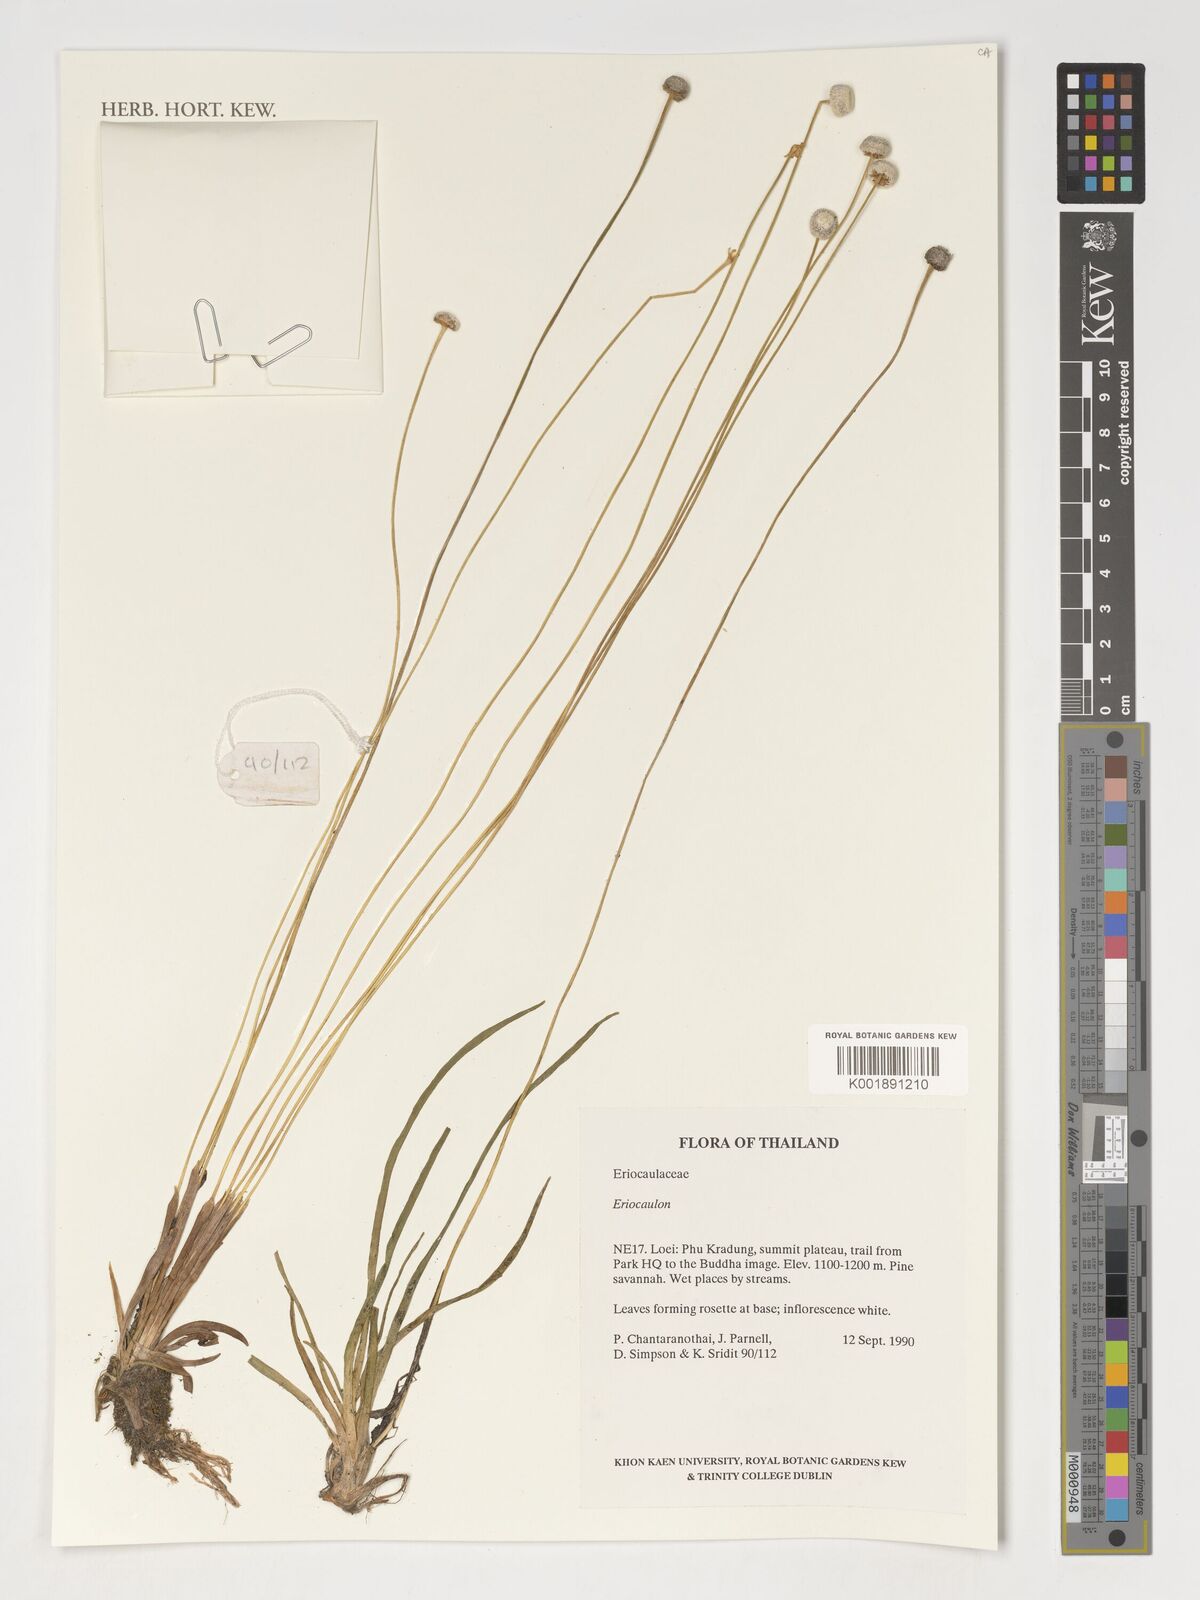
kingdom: Plantae
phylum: Tracheophyta
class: Liliopsida
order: Poales
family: Eriocaulaceae
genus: Eriocaulon
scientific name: Eriocaulon
